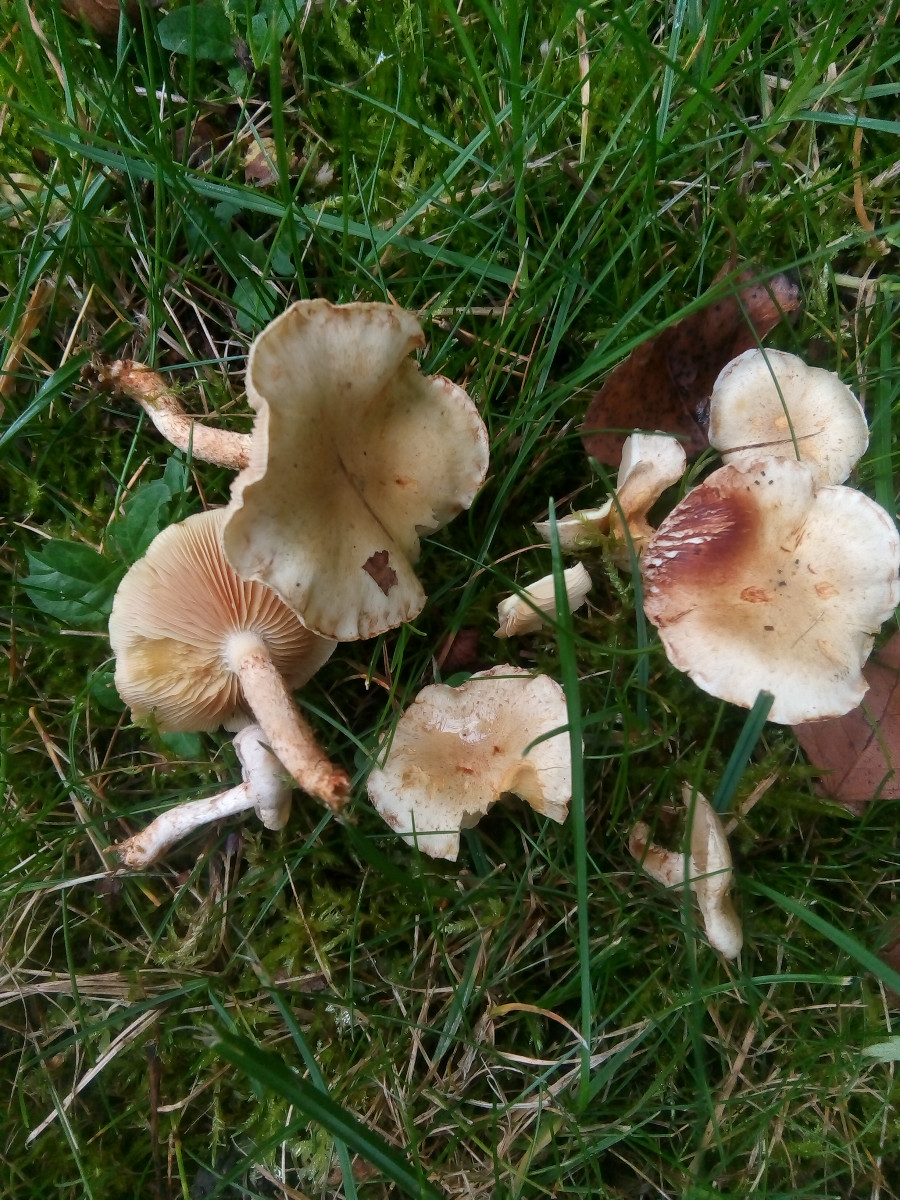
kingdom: Fungi
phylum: Basidiomycota
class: Agaricomycetes
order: Agaricales
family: Strophariaceae
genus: Pholiota
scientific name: Pholiota gummosa
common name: grøngul skælhat
